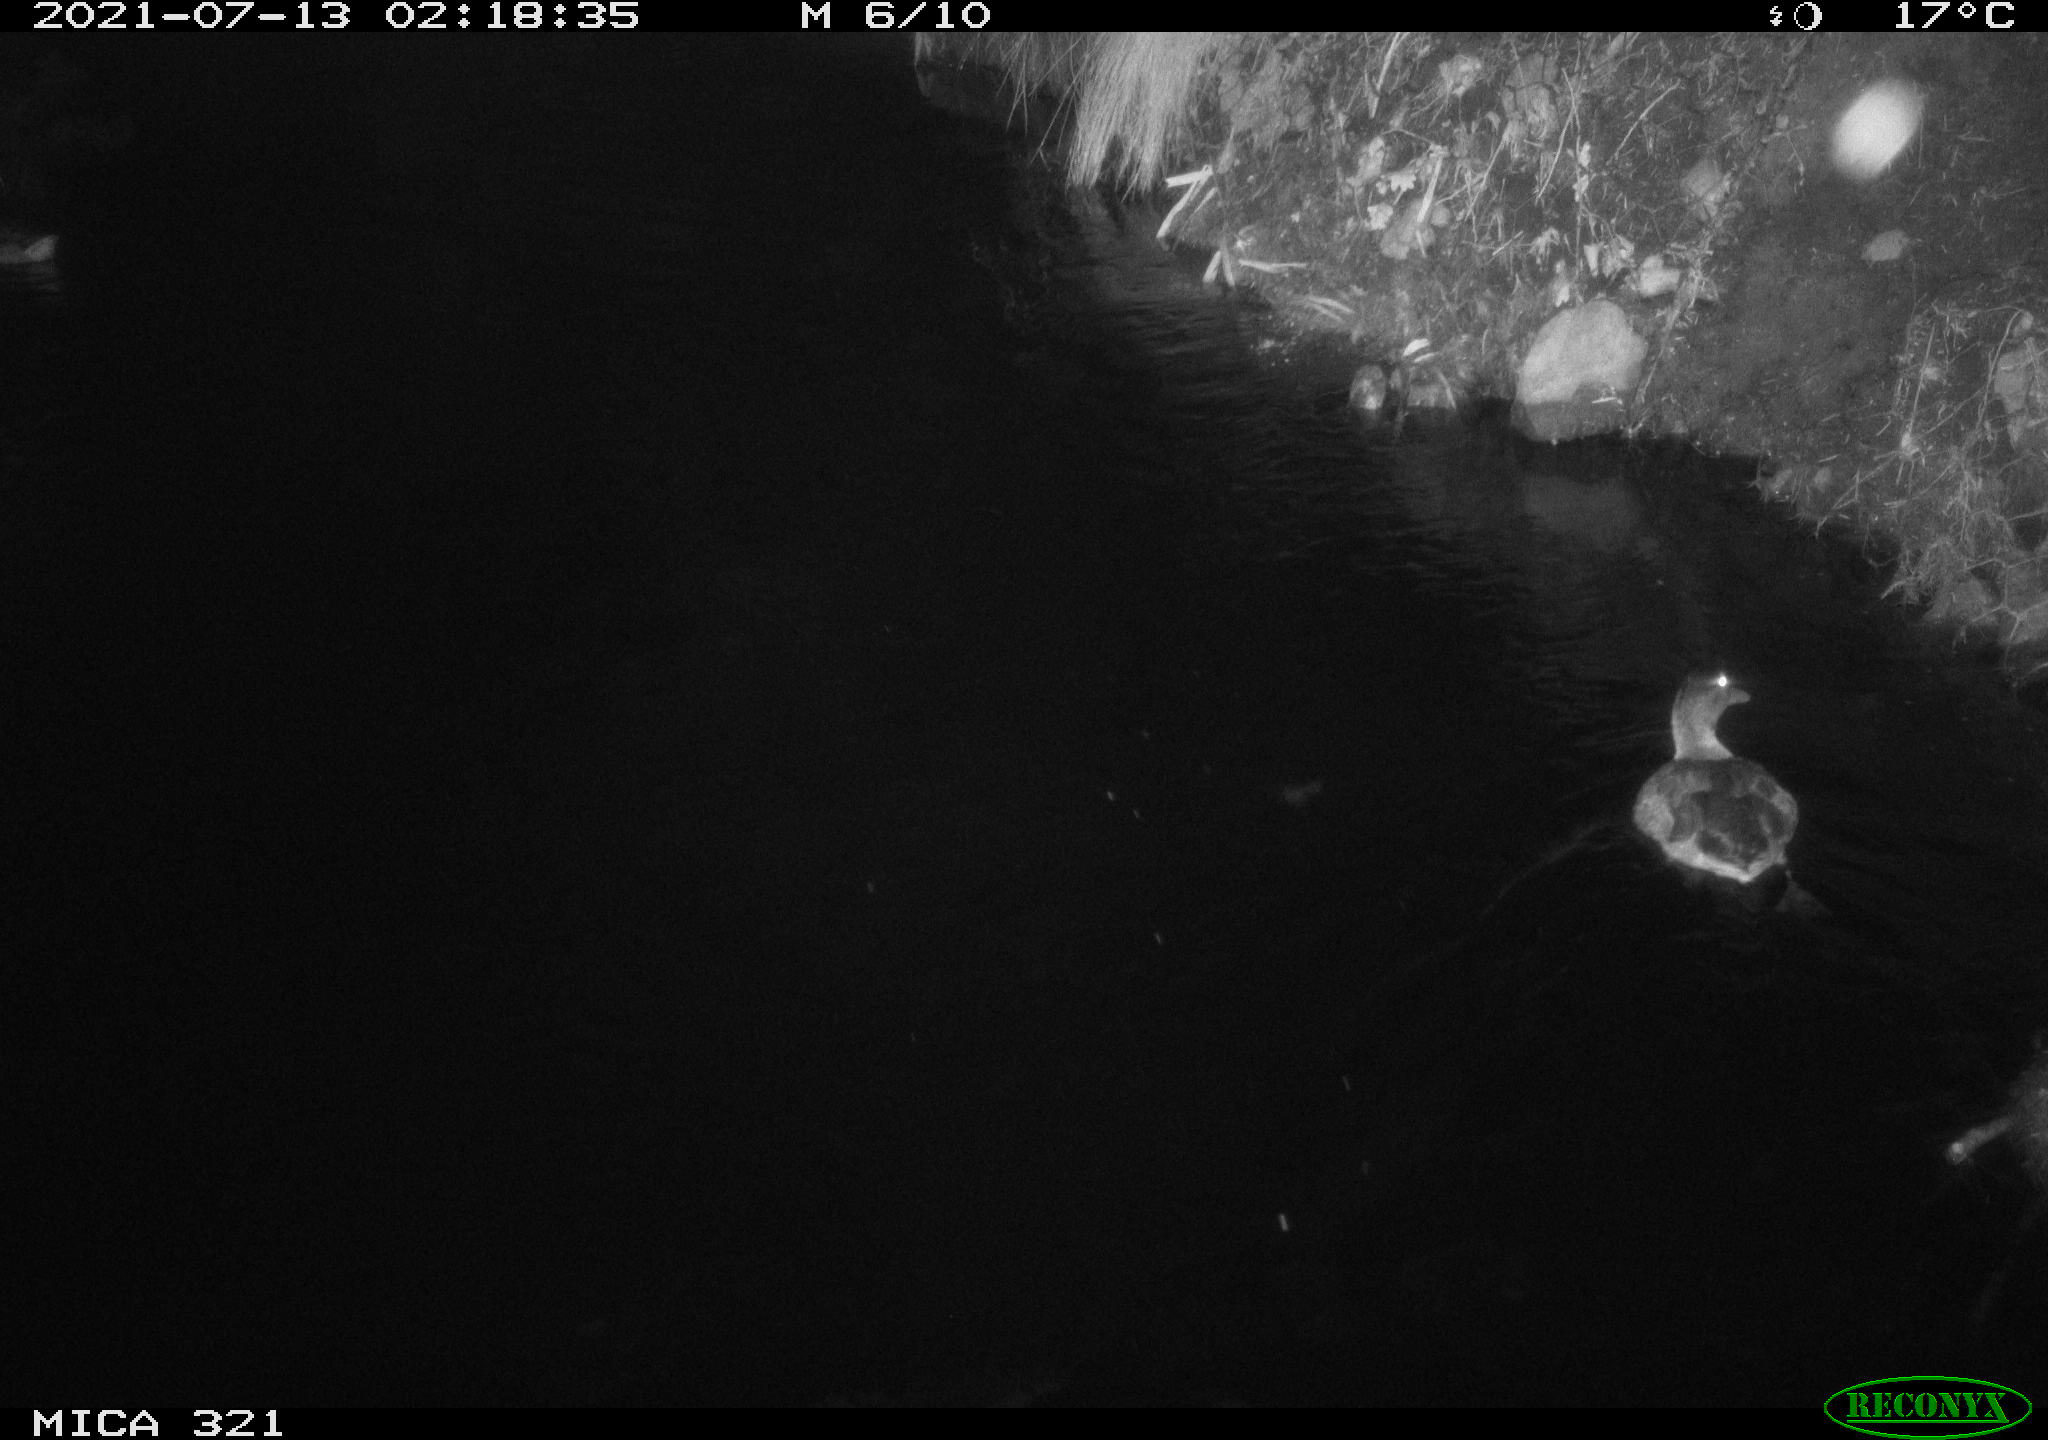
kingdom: Animalia
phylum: Chordata
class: Aves
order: Anseriformes
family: Anatidae
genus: Anas
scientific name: Anas platyrhynchos
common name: Mallard
